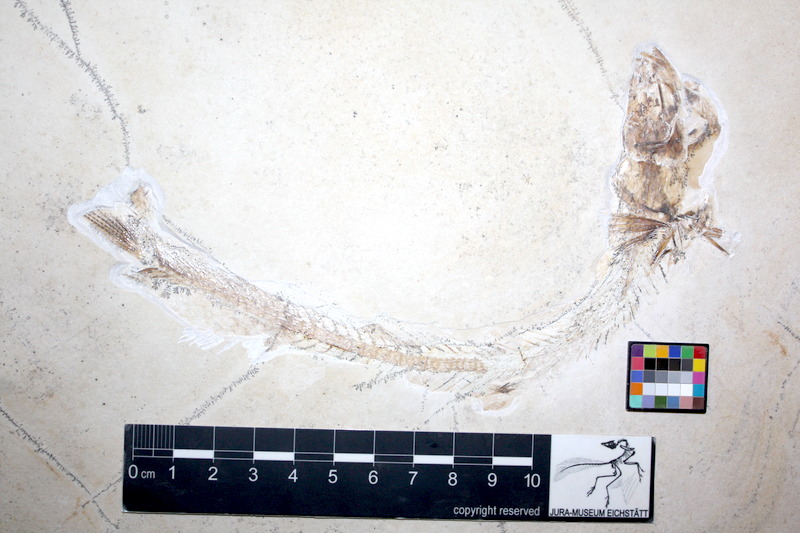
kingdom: Animalia
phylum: Chordata
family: Allothrissopidae
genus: Allothrissops
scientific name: Allothrissops mesogaster
